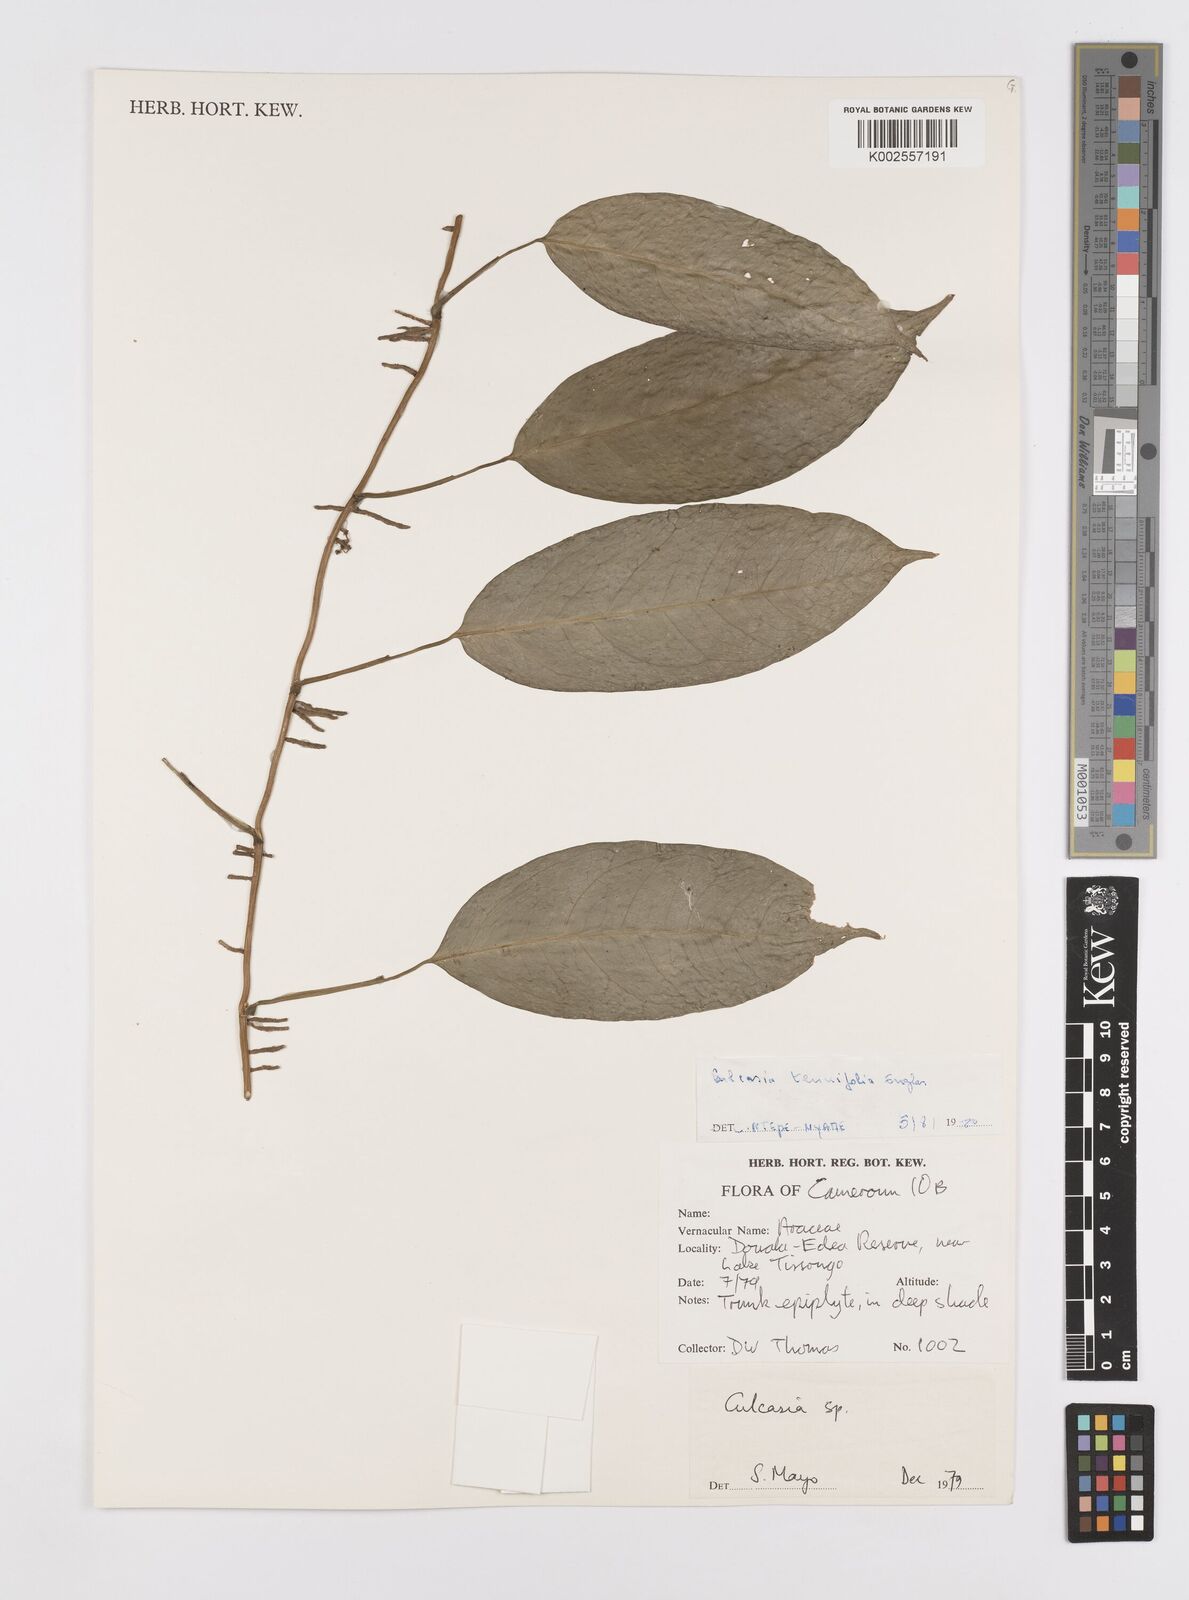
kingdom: Plantae
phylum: Tracheophyta
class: Liliopsida
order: Alismatales
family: Araceae
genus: Culcasia
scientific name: Culcasia tenuifolia
